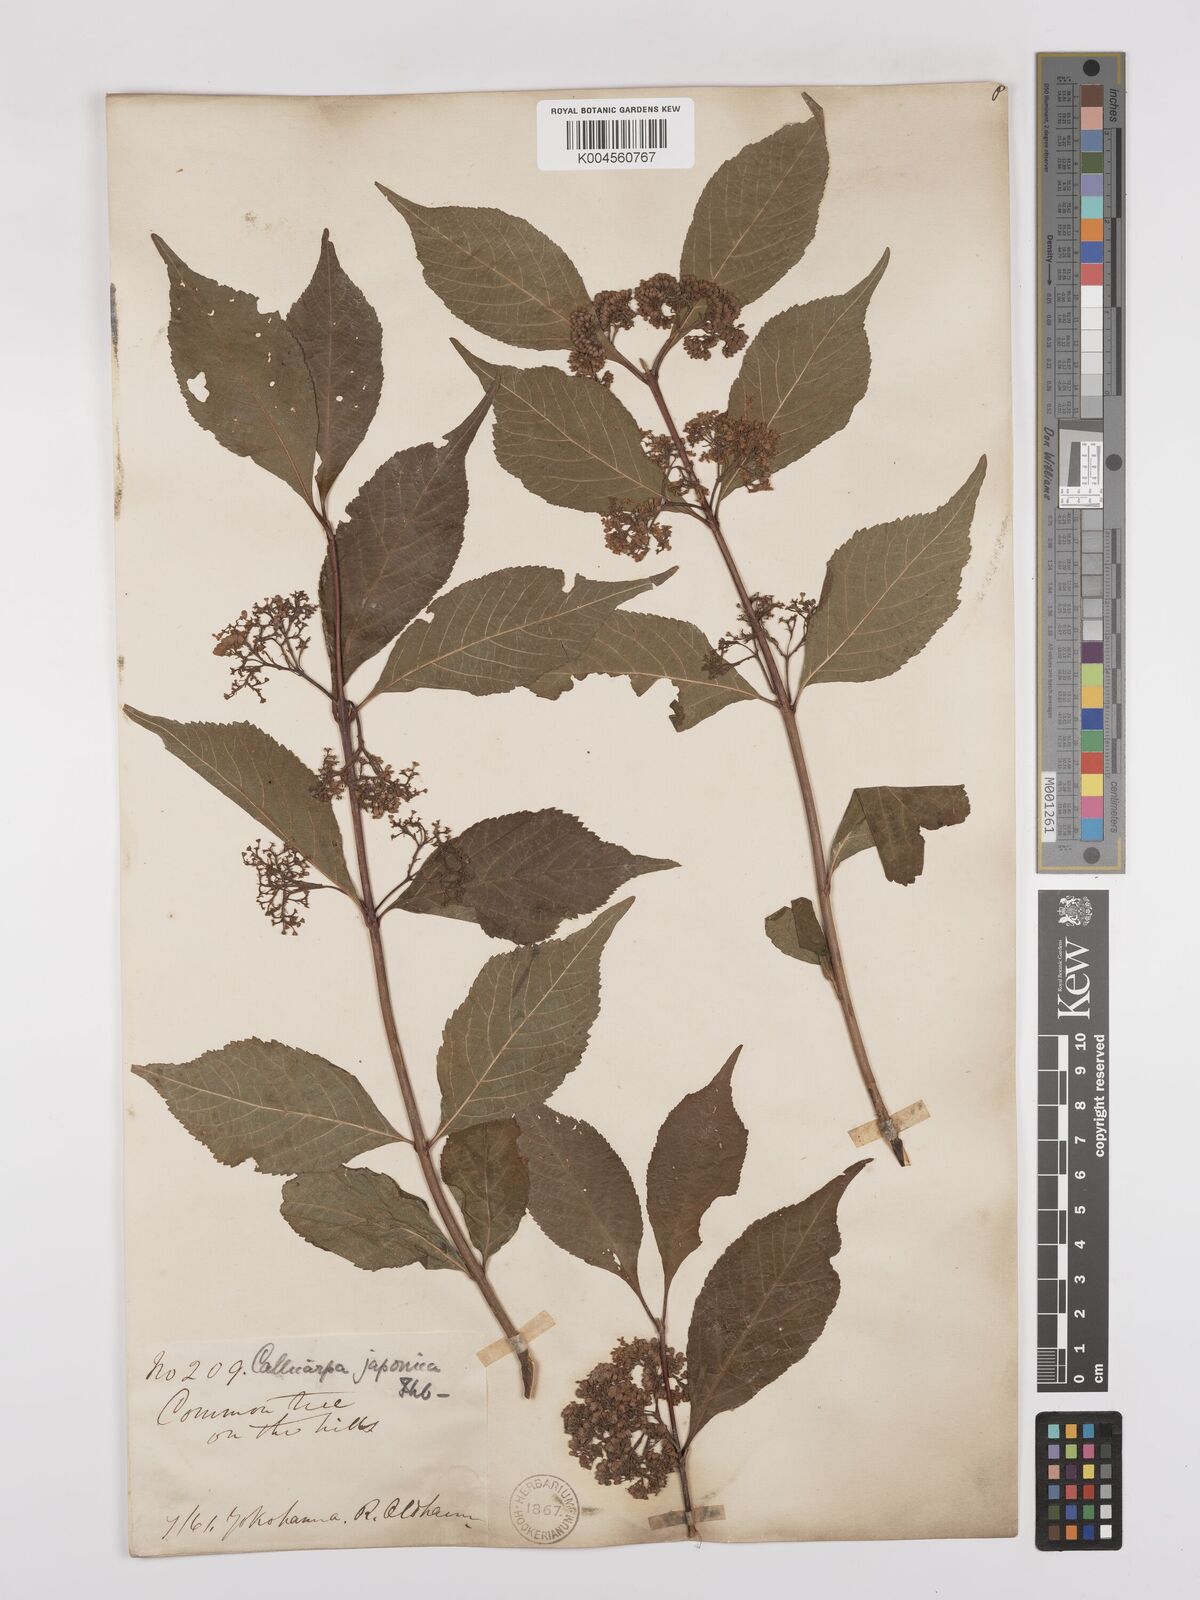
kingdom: Plantae
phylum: Tracheophyta
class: Magnoliopsida
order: Lamiales
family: Lamiaceae
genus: Callicarpa
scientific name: Callicarpa japonica
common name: Japanese beauty-berry
